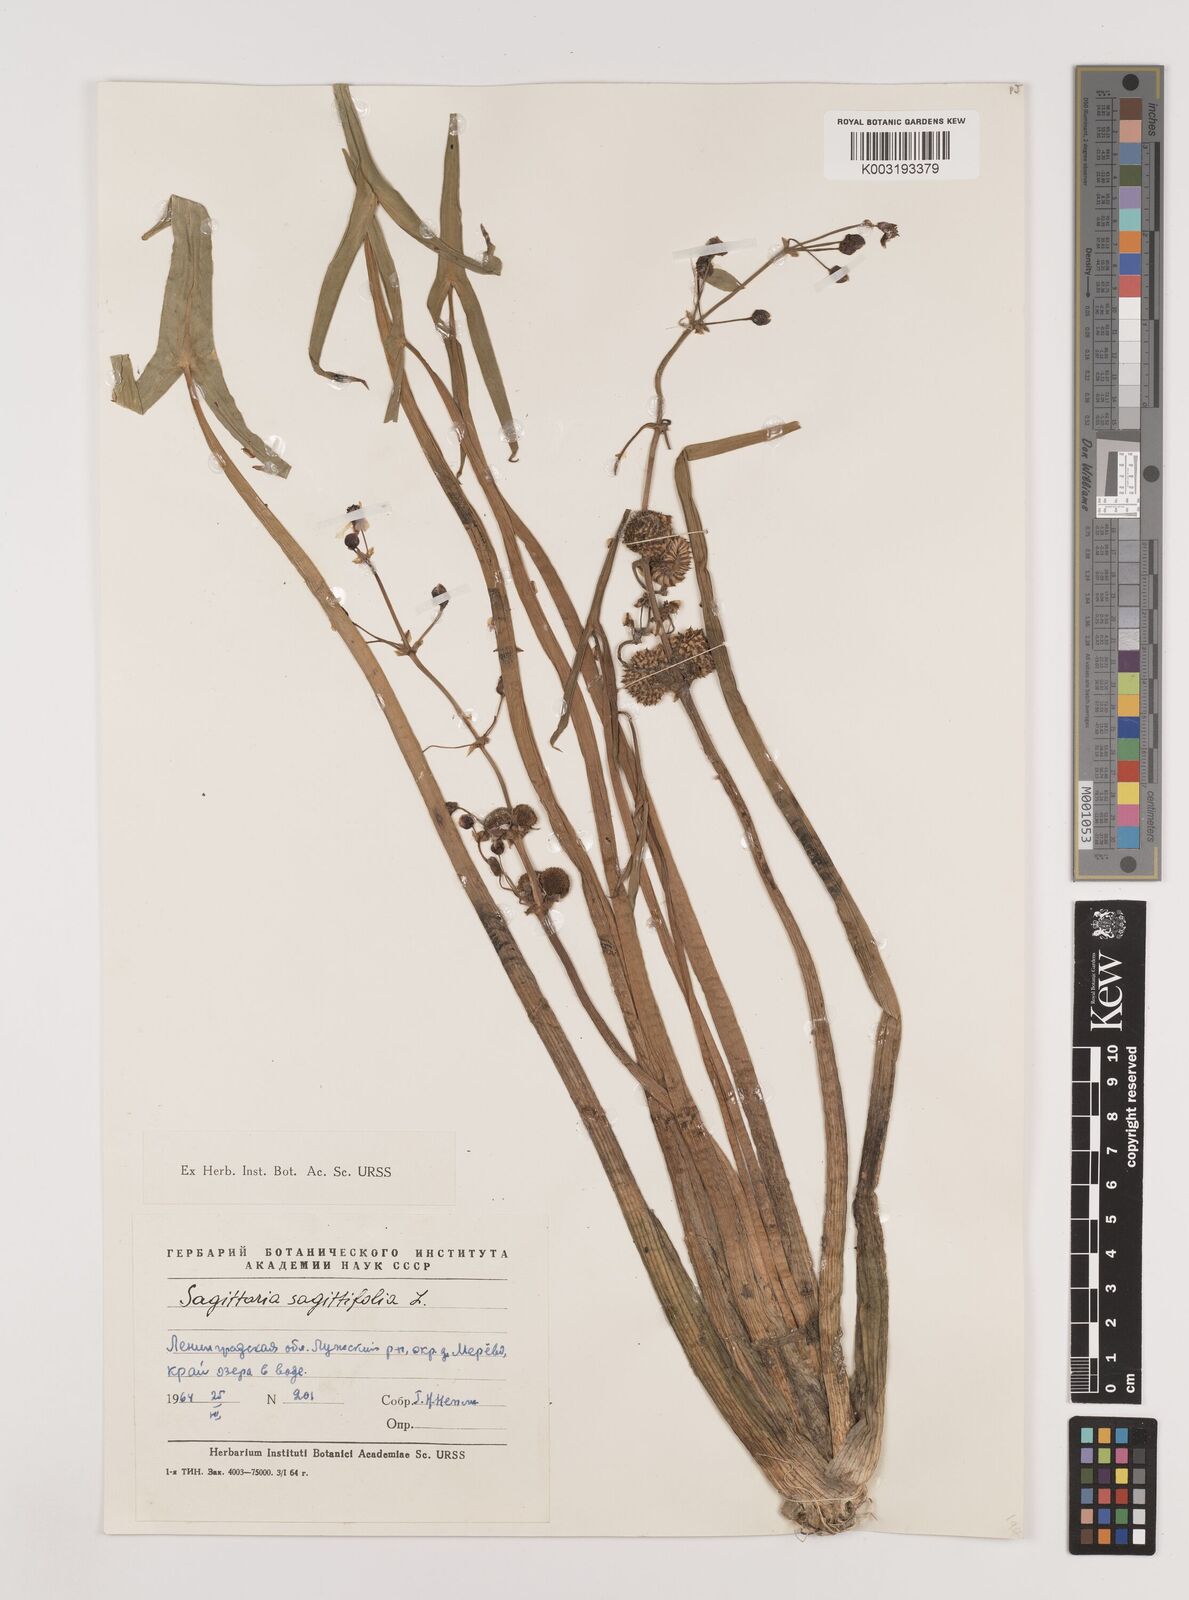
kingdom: Plantae
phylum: Tracheophyta
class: Liliopsida
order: Alismatales
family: Alismataceae
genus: Sagittaria
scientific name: Sagittaria sagittifolia
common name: Arrowhead
